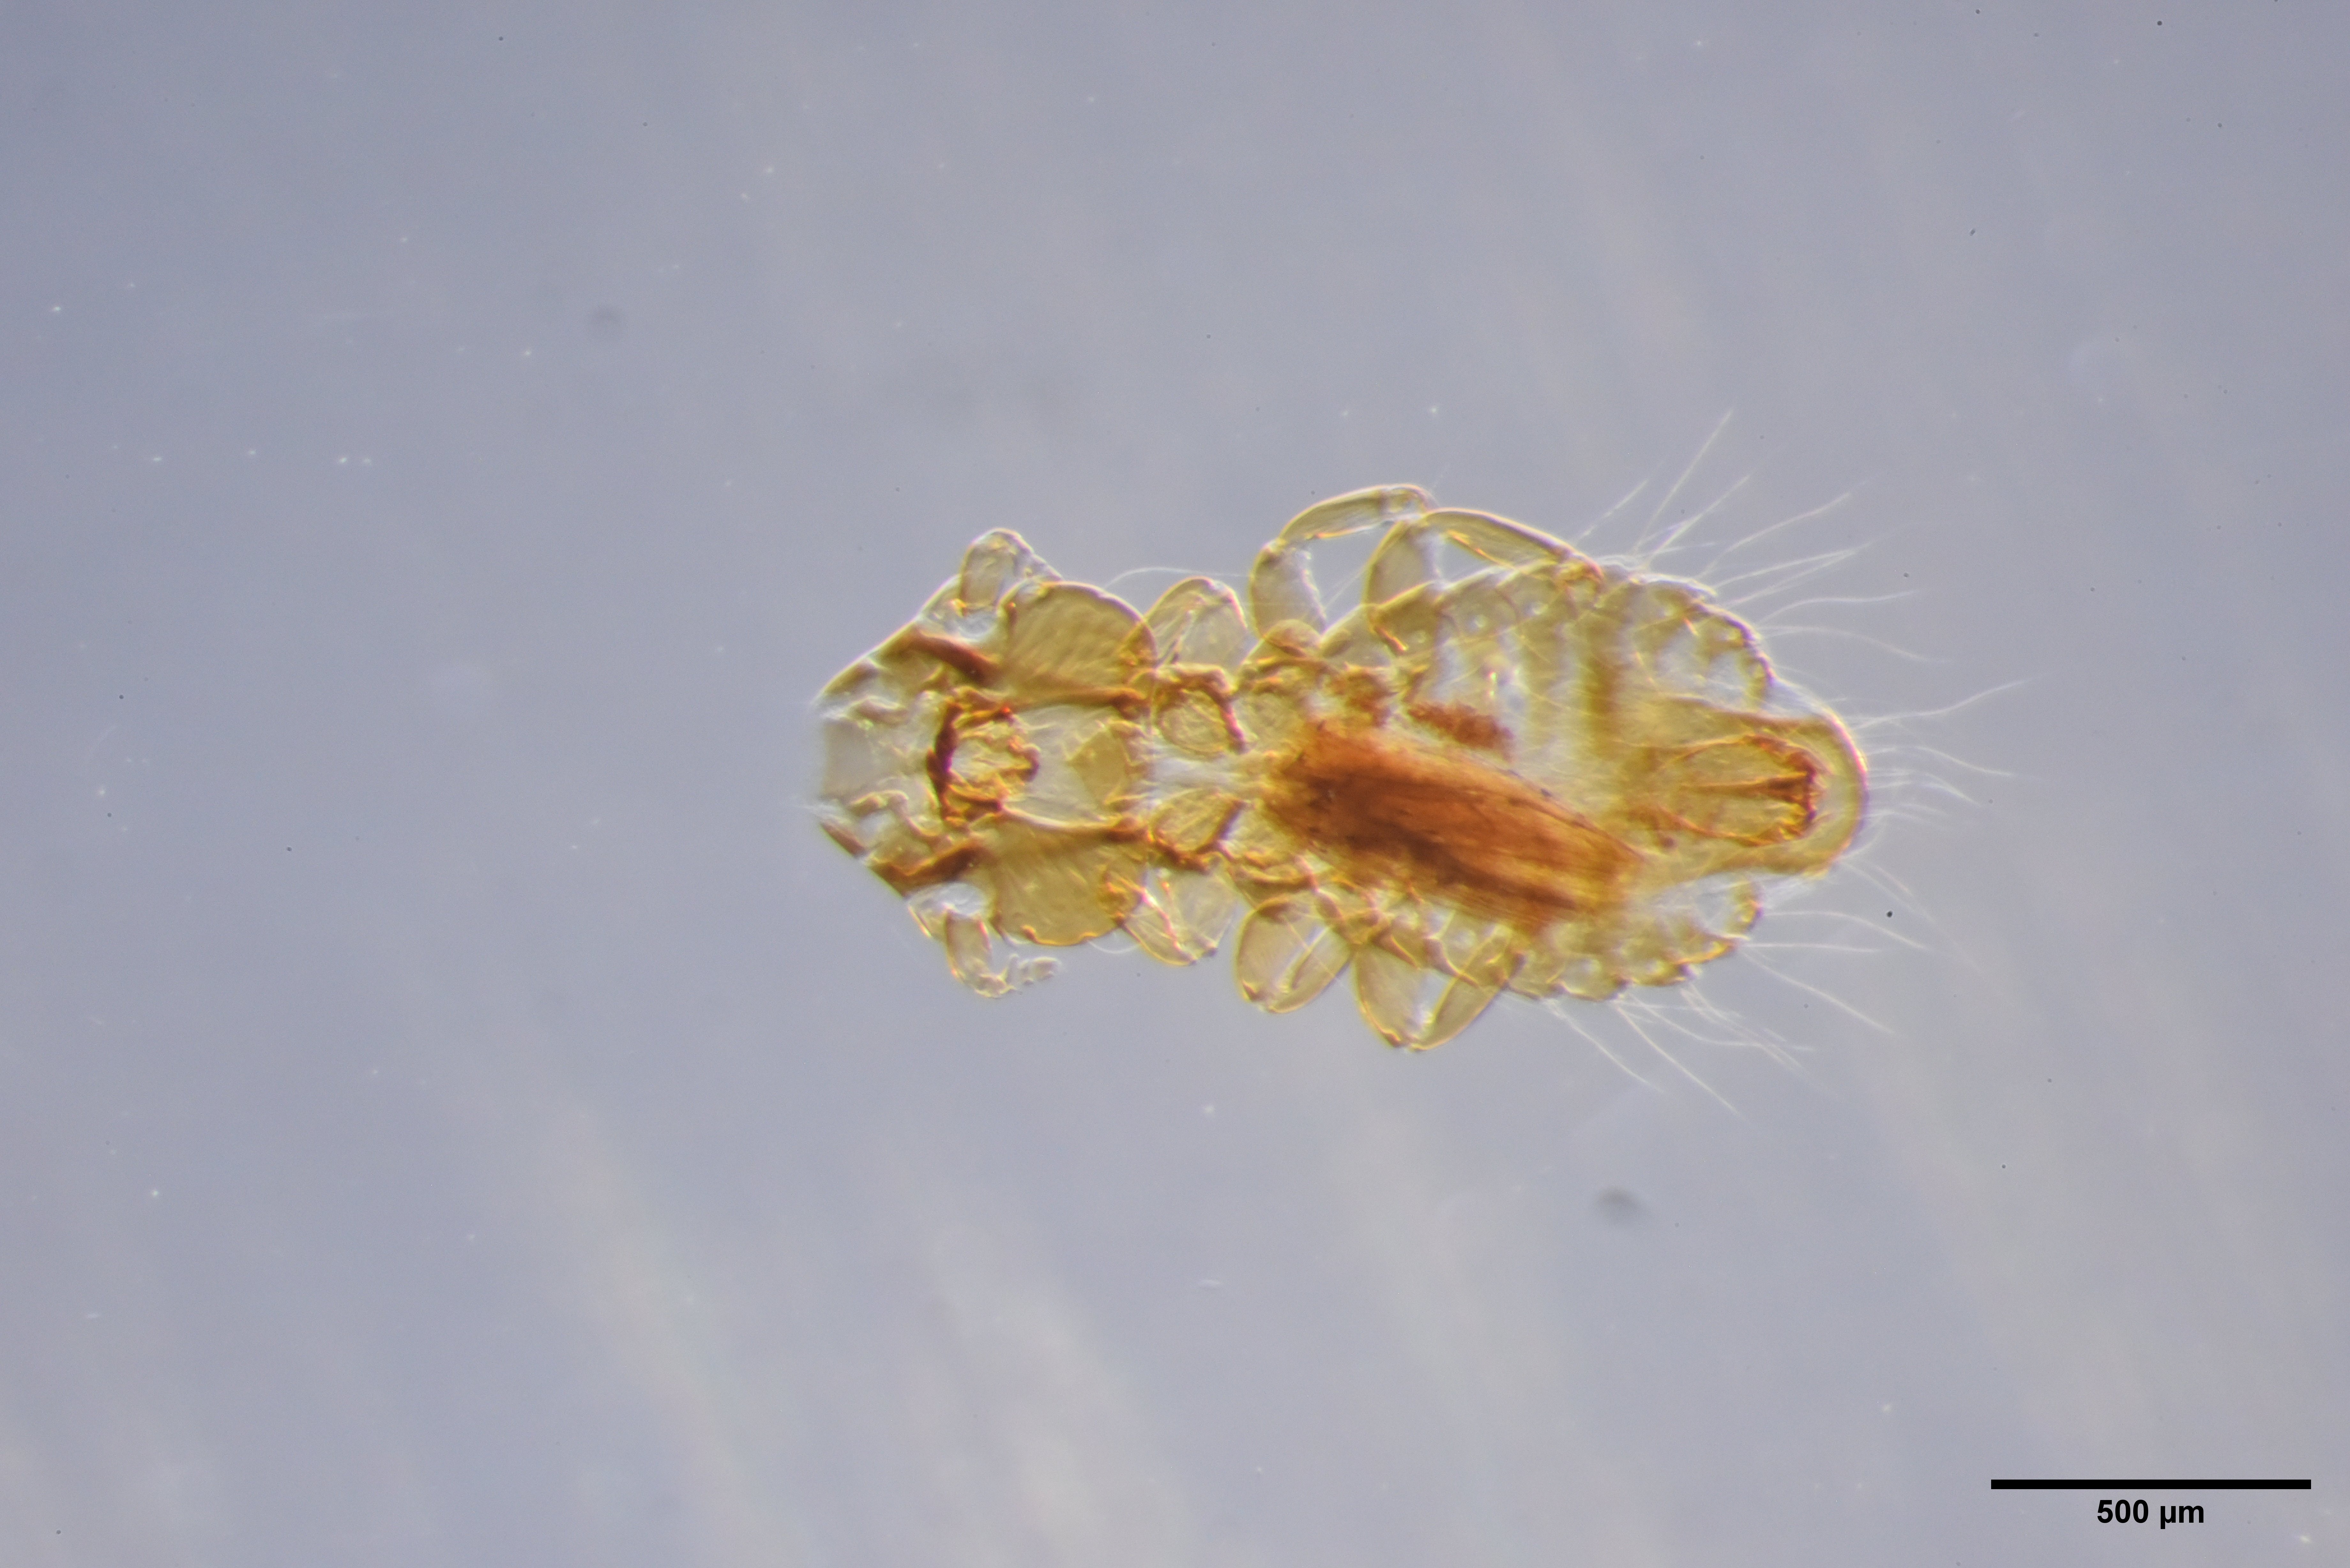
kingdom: Animalia
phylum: Arthropoda
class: Insecta
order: Psocodea
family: Philopteridae
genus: Strigiphilus
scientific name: Strigiphilus
